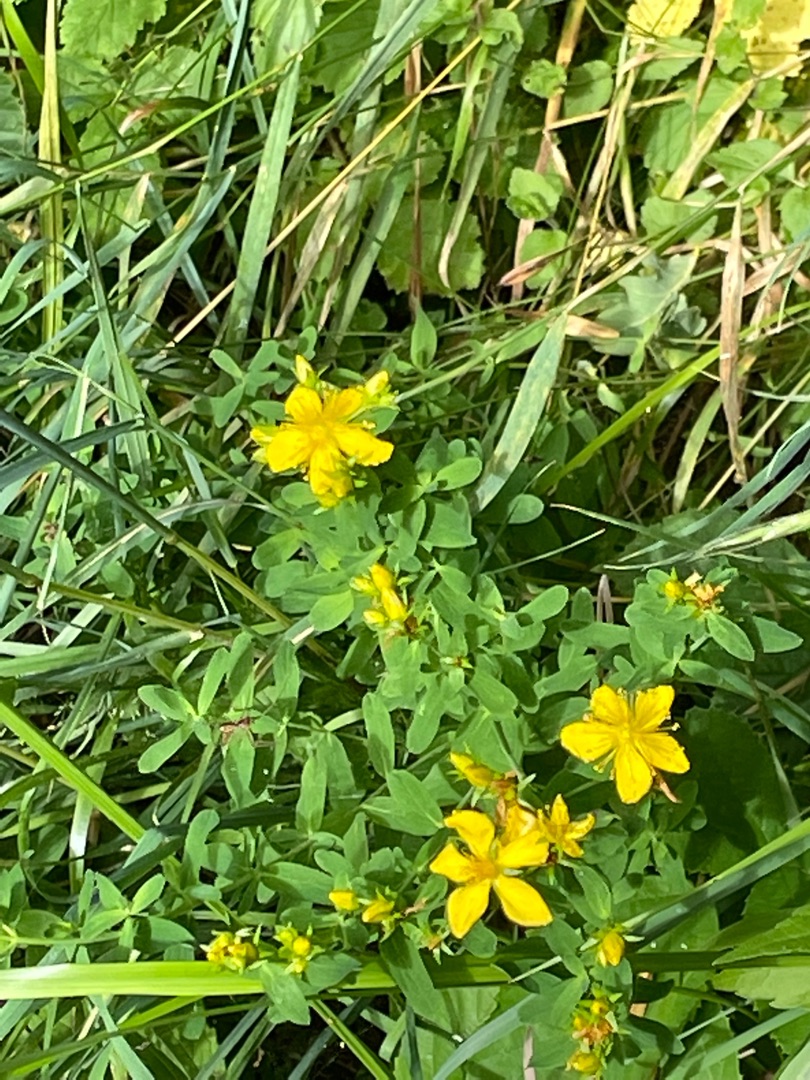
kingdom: Plantae
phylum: Tracheophyta
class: Magnoliopsida
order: Malpighiales
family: Hypericaceae
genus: Hypericum
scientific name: Hypericum perforatum
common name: Prikbladet perikon
